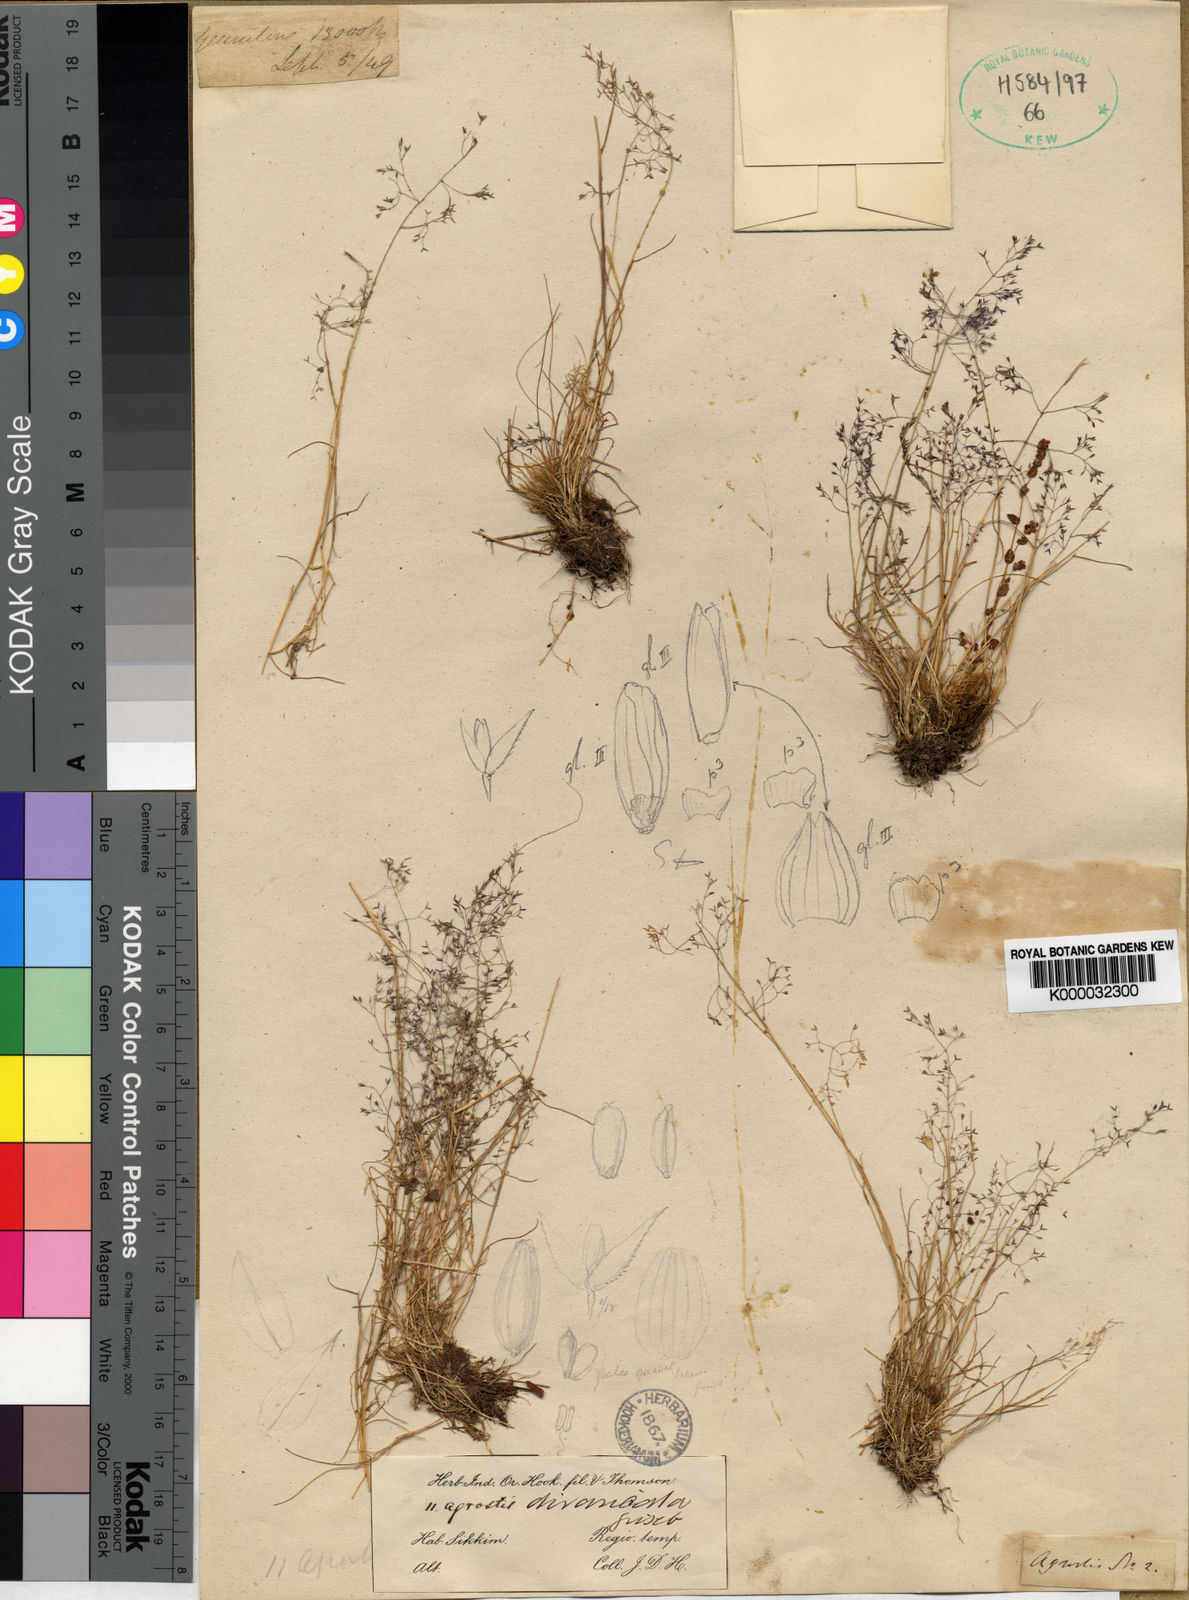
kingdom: Plantae
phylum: Tracheophyta
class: Liliopsida
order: Poales
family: Poaceae
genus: Agrostis
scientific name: Agrostis nervosa
